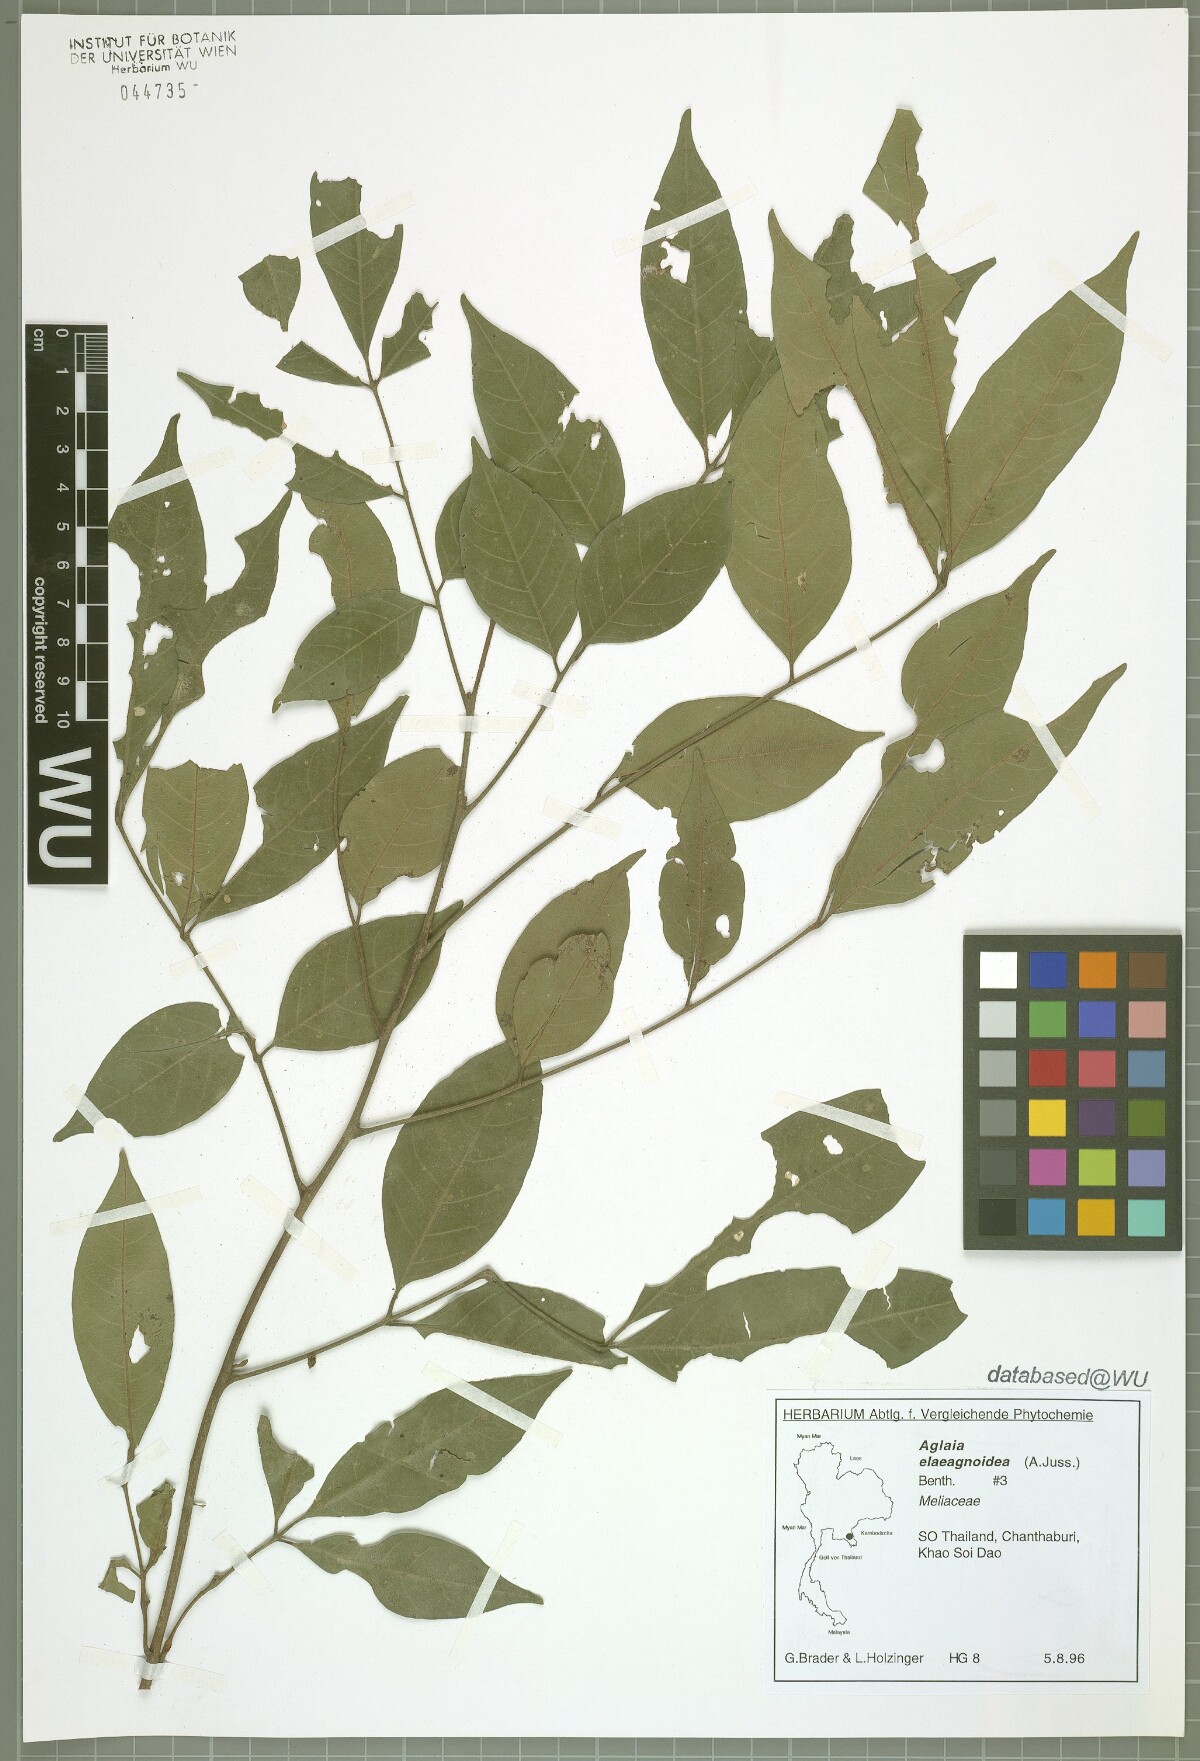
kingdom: Plantae
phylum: Tracheophyta
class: Magnoliopsida
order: Sapindales
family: Meliaceae
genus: Aglaia
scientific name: Aglaia elaeagnoidea
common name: Droopyleaf
